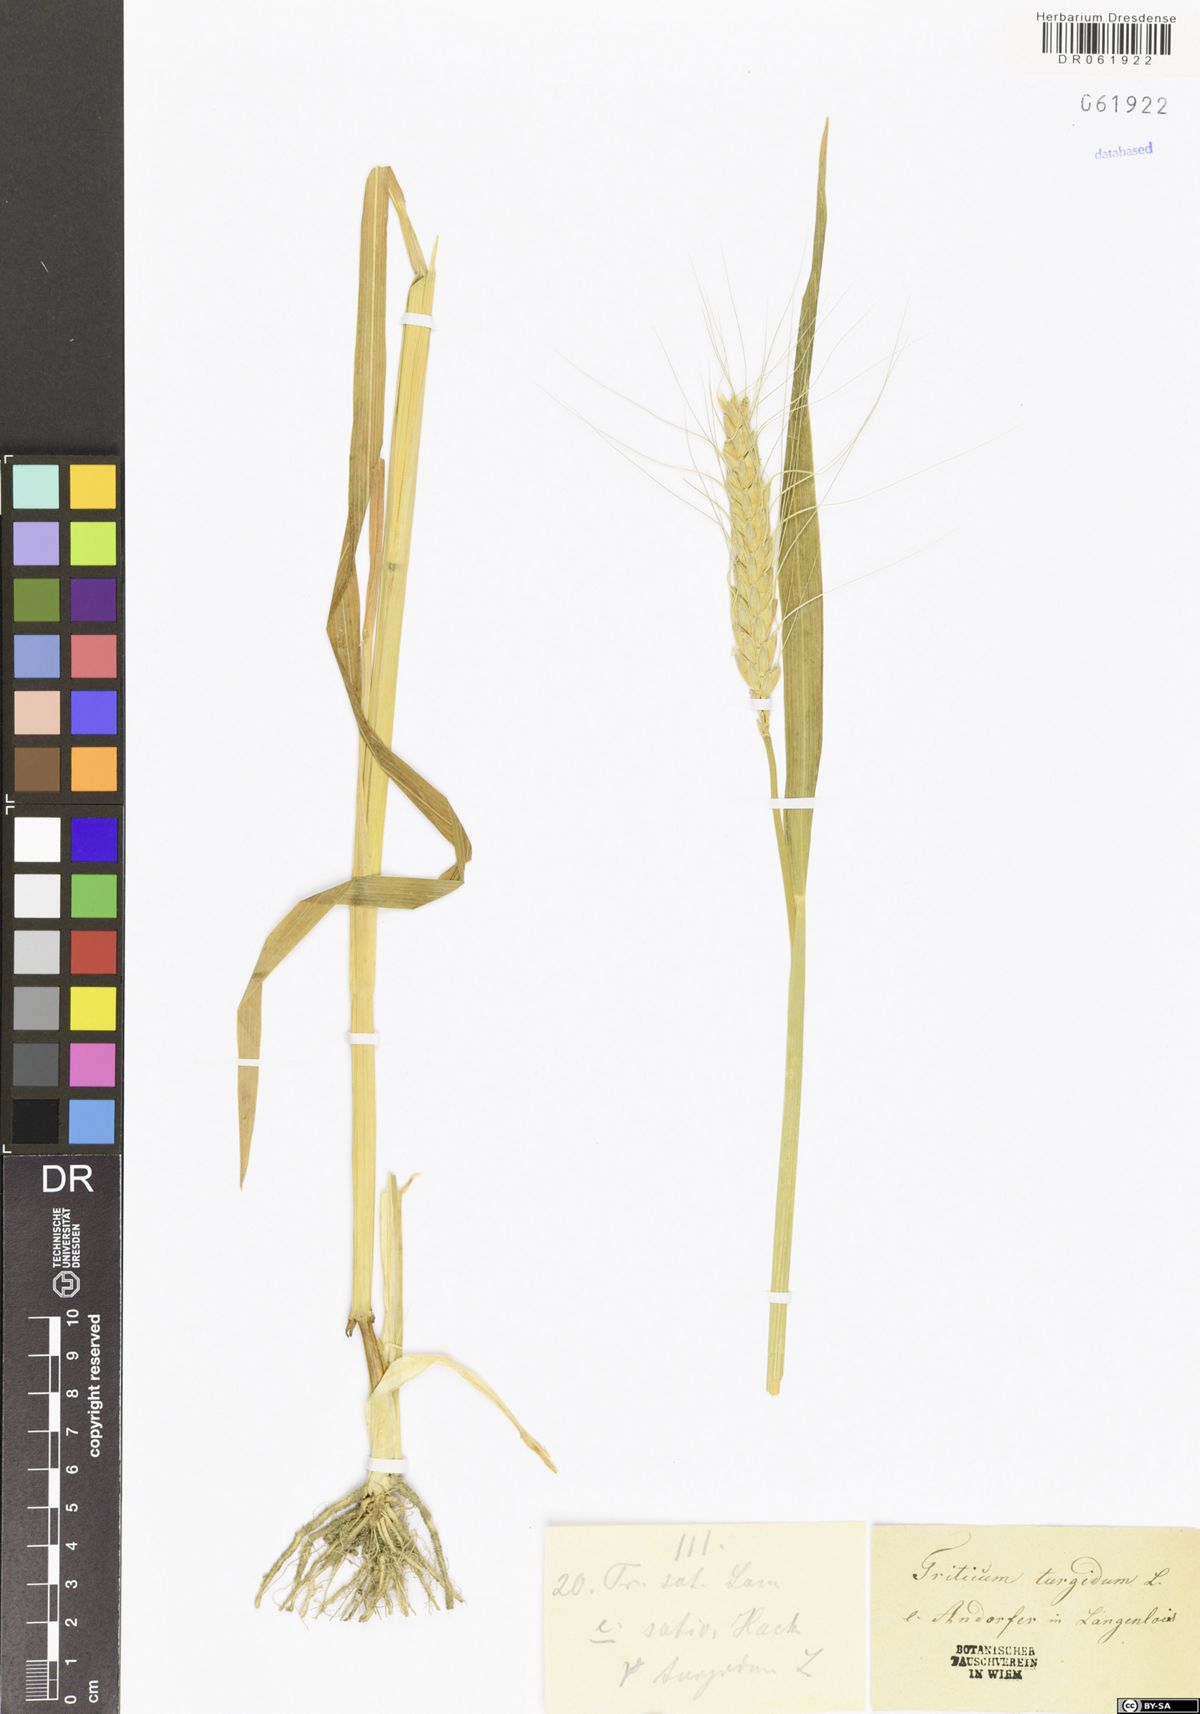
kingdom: Plantae
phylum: Tracheophyta
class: Liliopsida
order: Poales
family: Poaceae
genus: Triticum
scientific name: Triticum turgidum
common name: Rivet wheat
